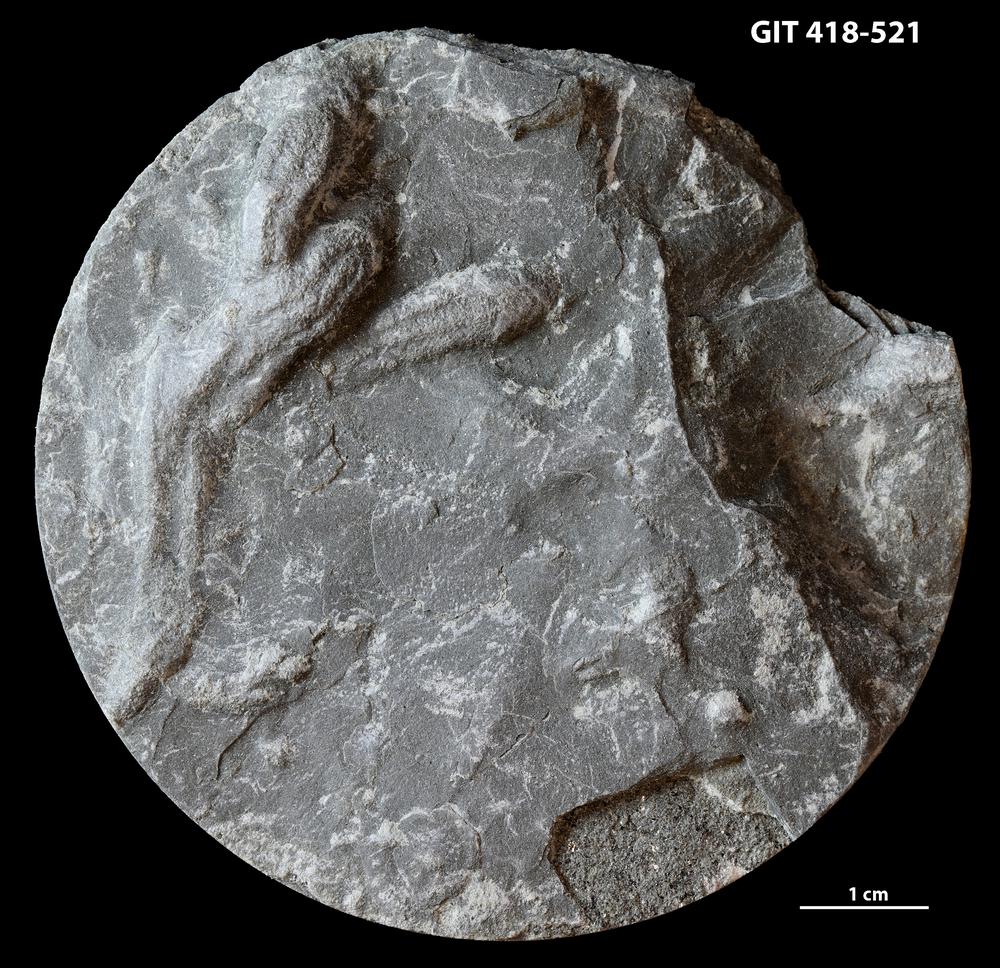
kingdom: Animalia
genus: Didymaulichnus
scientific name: Didymaulichnus
